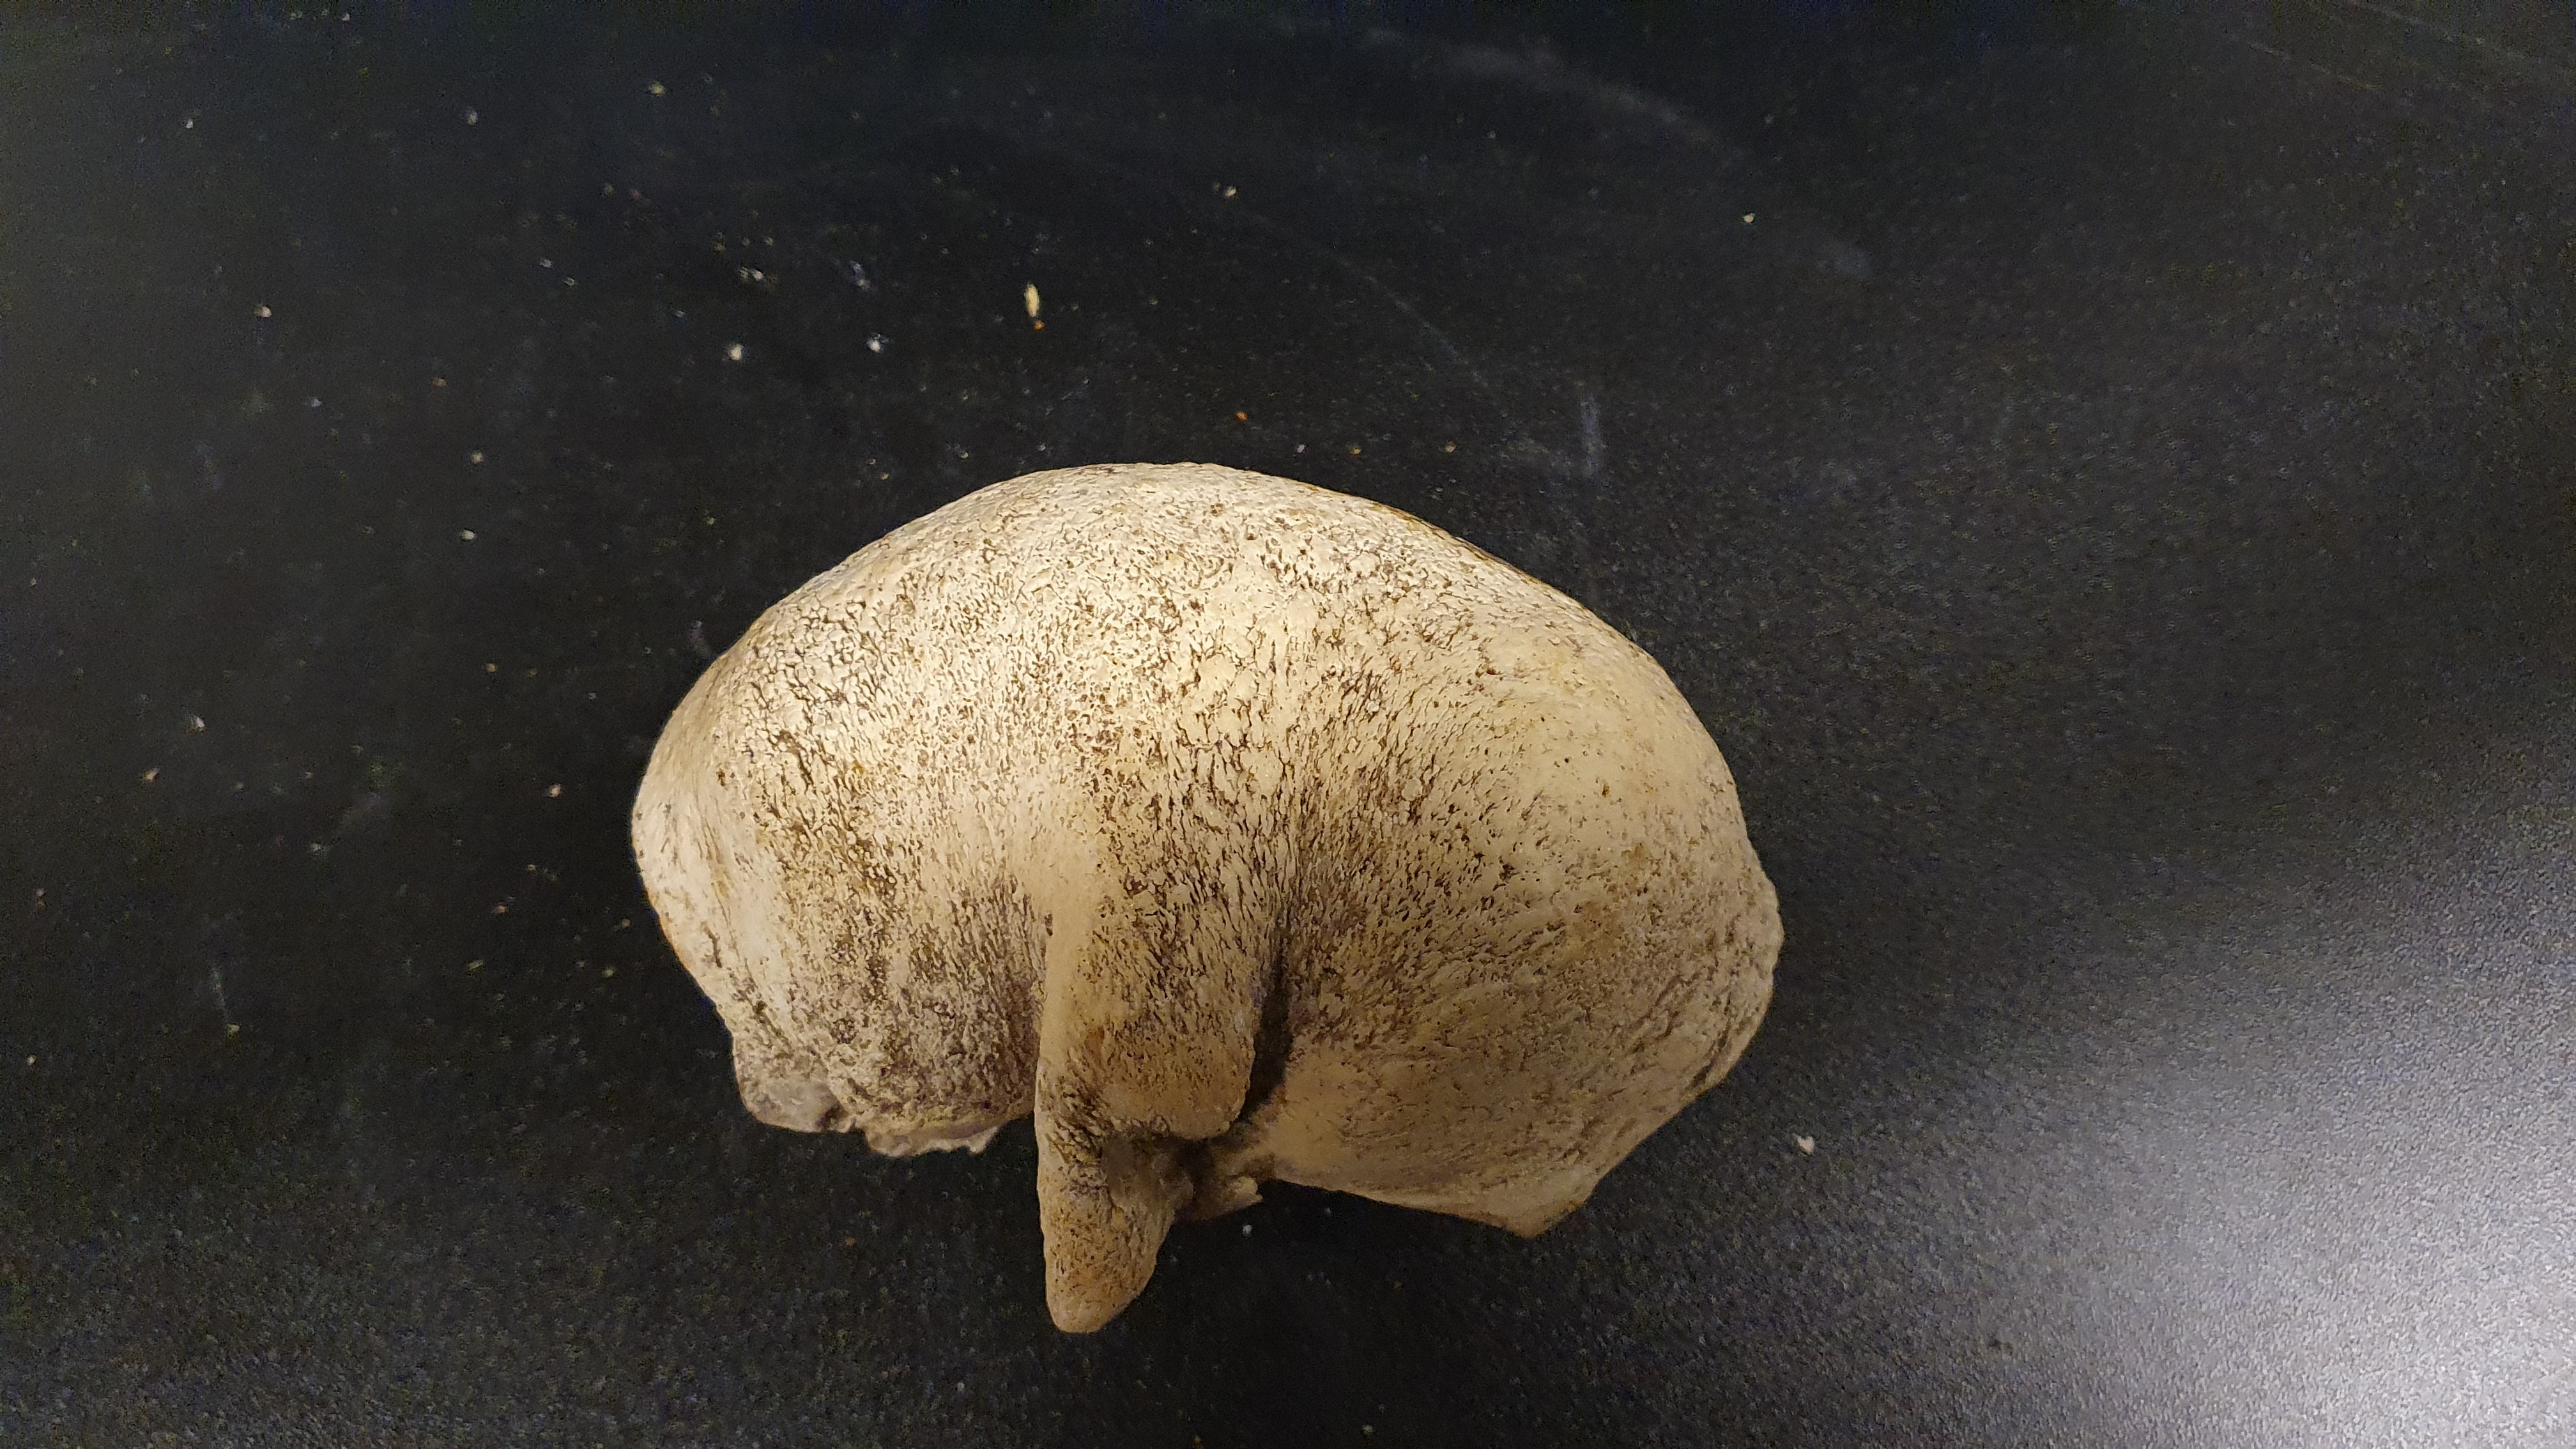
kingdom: Animalia
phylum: Chordata
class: Mammalia
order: Cetacea
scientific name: Cetacea
